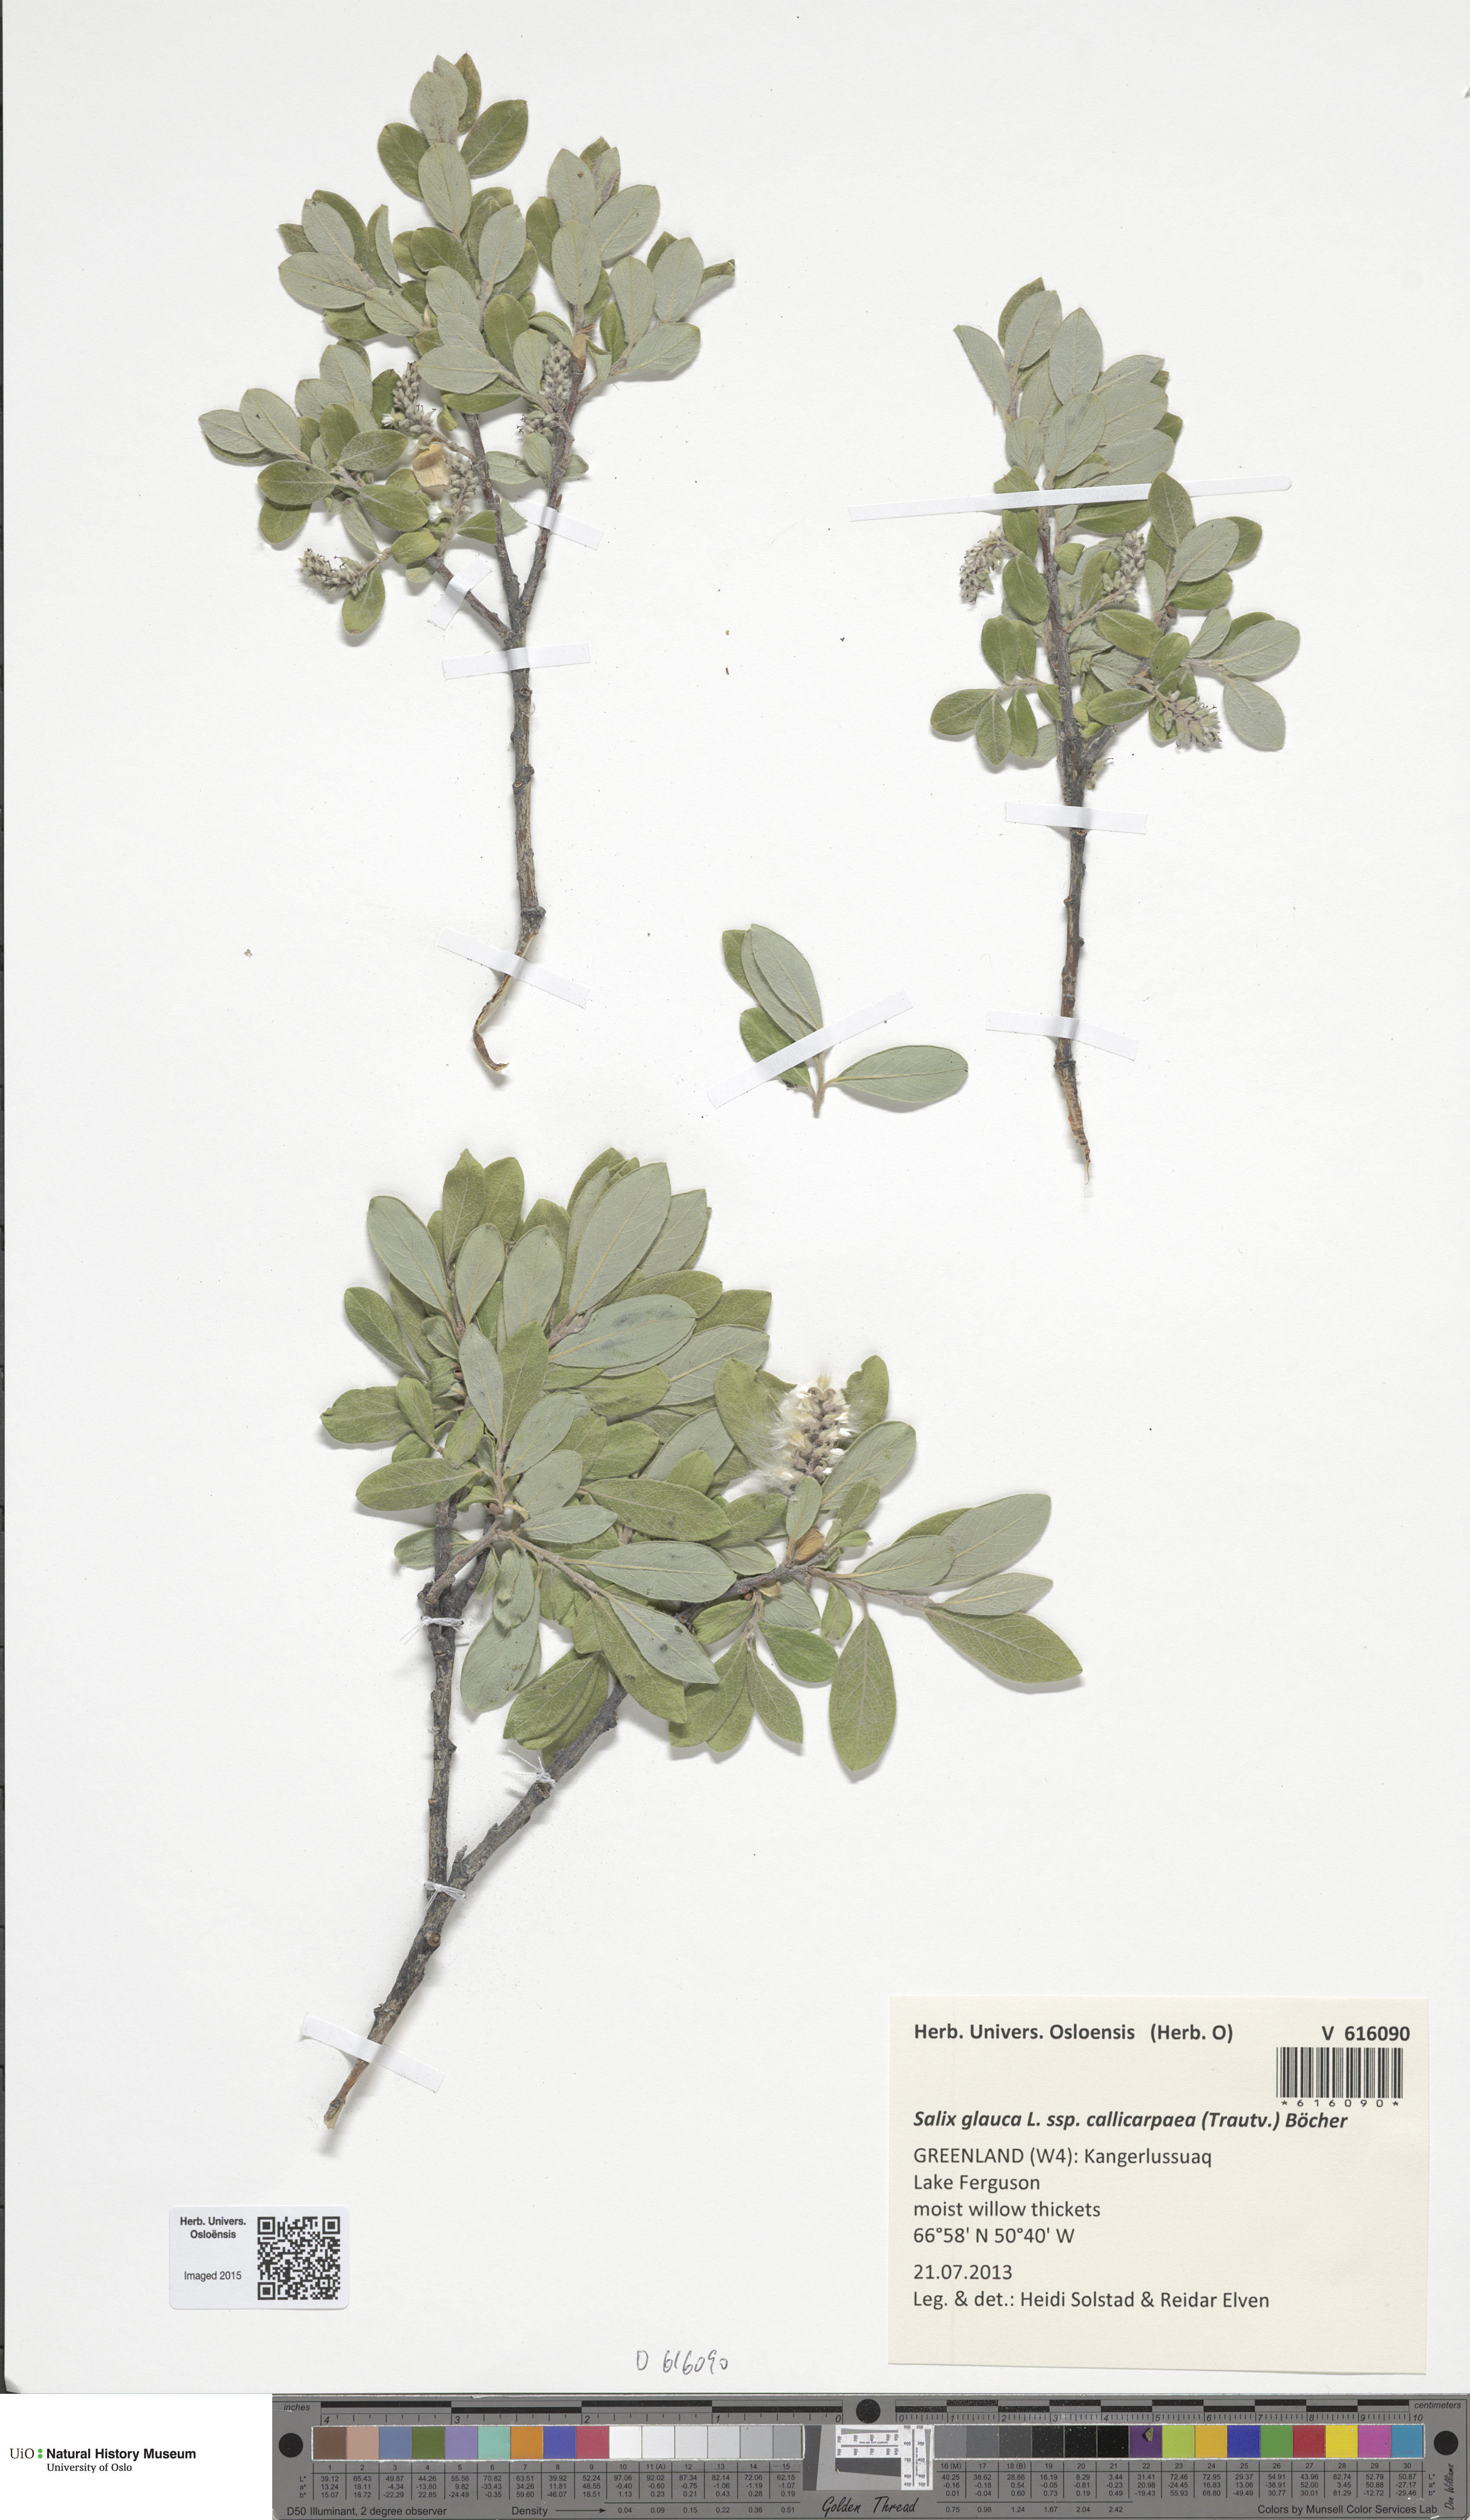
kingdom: Plantae
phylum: Tracheophyta
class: Magnoliopsida
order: Malpighiales
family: Salicaceae
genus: Salix
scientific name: Salix glauca
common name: Glaucous willow
